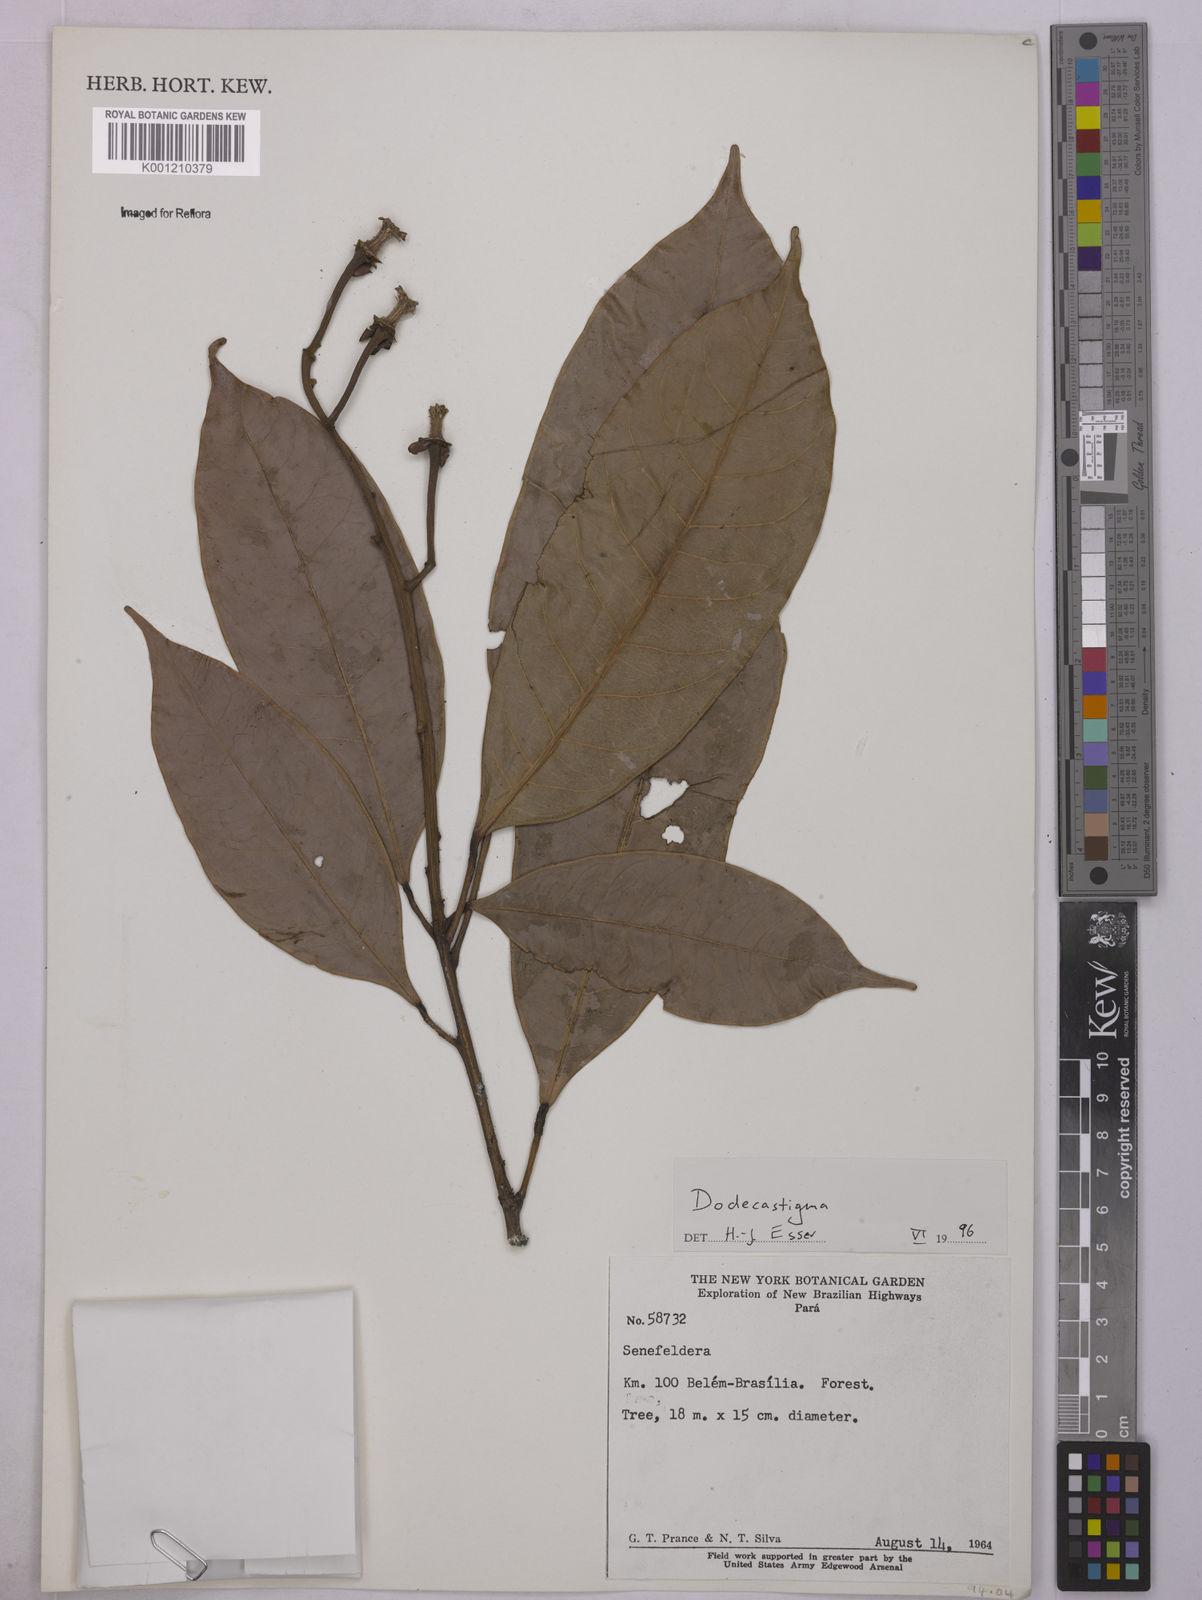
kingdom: Plantae
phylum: Tracheophyta
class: Magnoliopsida
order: Malpighiales
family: Euphorbiaceae
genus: Dodecastigma
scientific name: Dodecastigma
